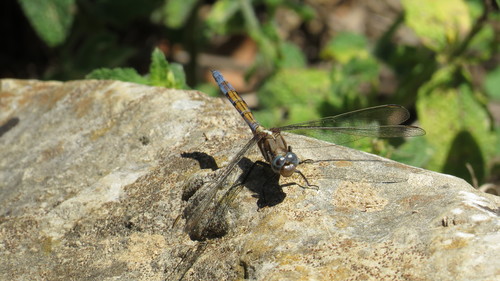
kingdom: Animalia
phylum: Arthropoda
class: Insecta
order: Odonata
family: Libellulidae
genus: Orthetrum
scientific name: Orthetrum chrysostigma
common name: Epaulet skimmer
